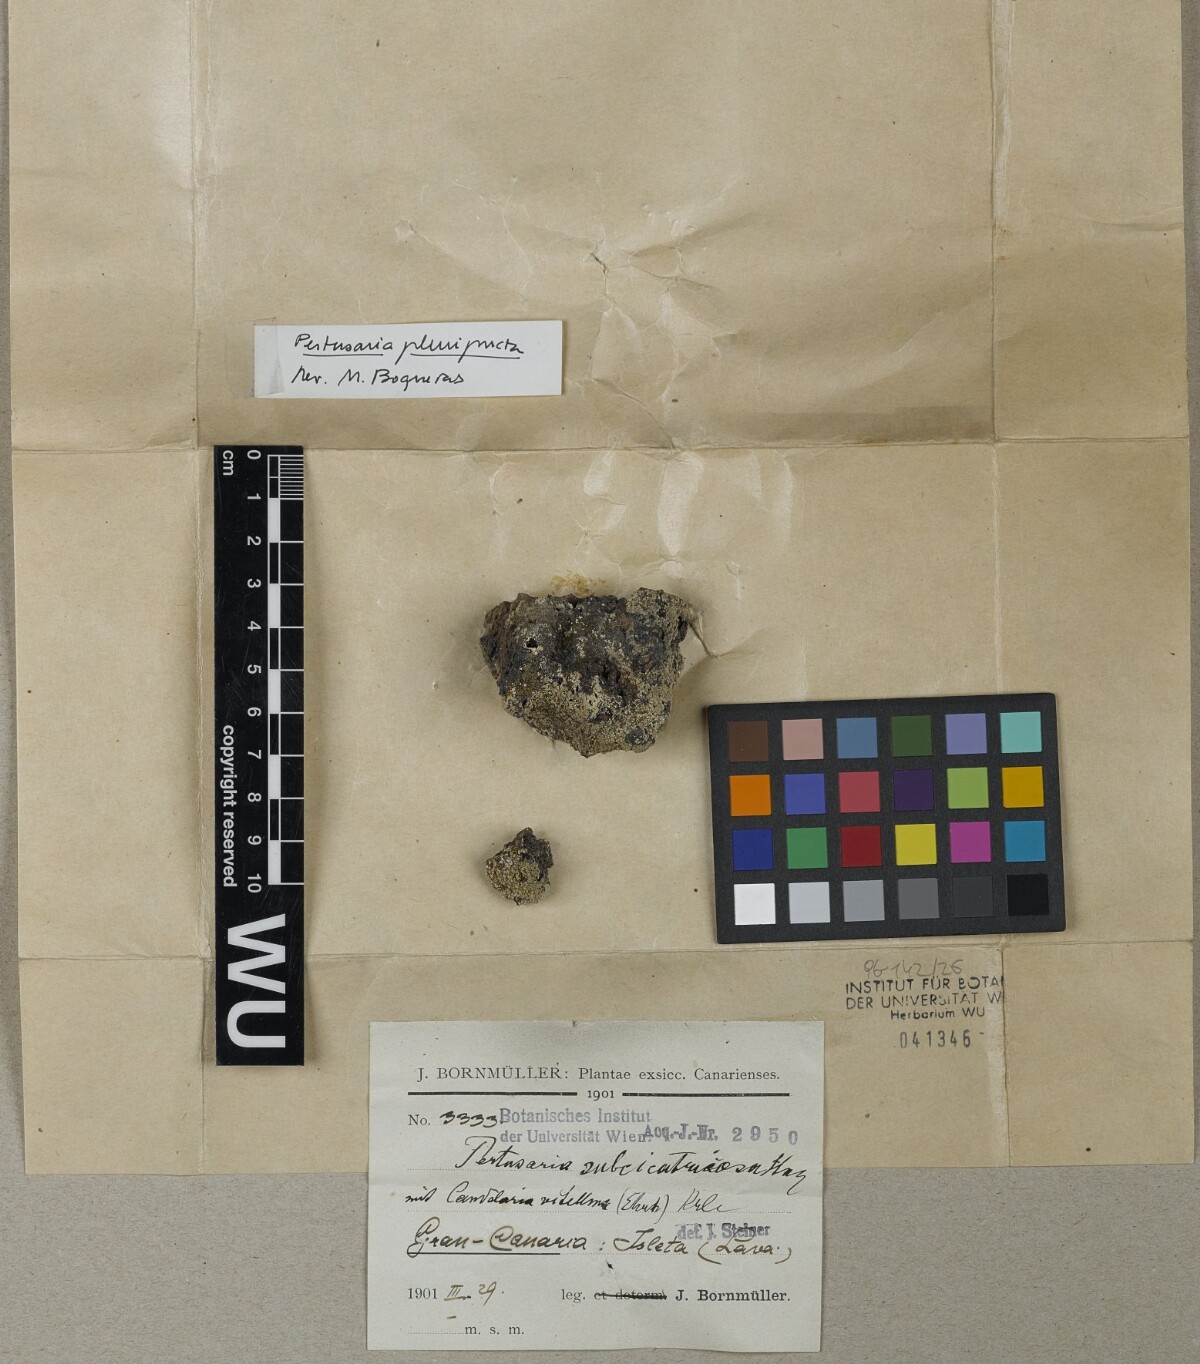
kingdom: Fungi
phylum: Ascomycota
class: Lecanoromycetes
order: Pertusariales
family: Pertusariaceae
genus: Pertusaria
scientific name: Pertusaria
